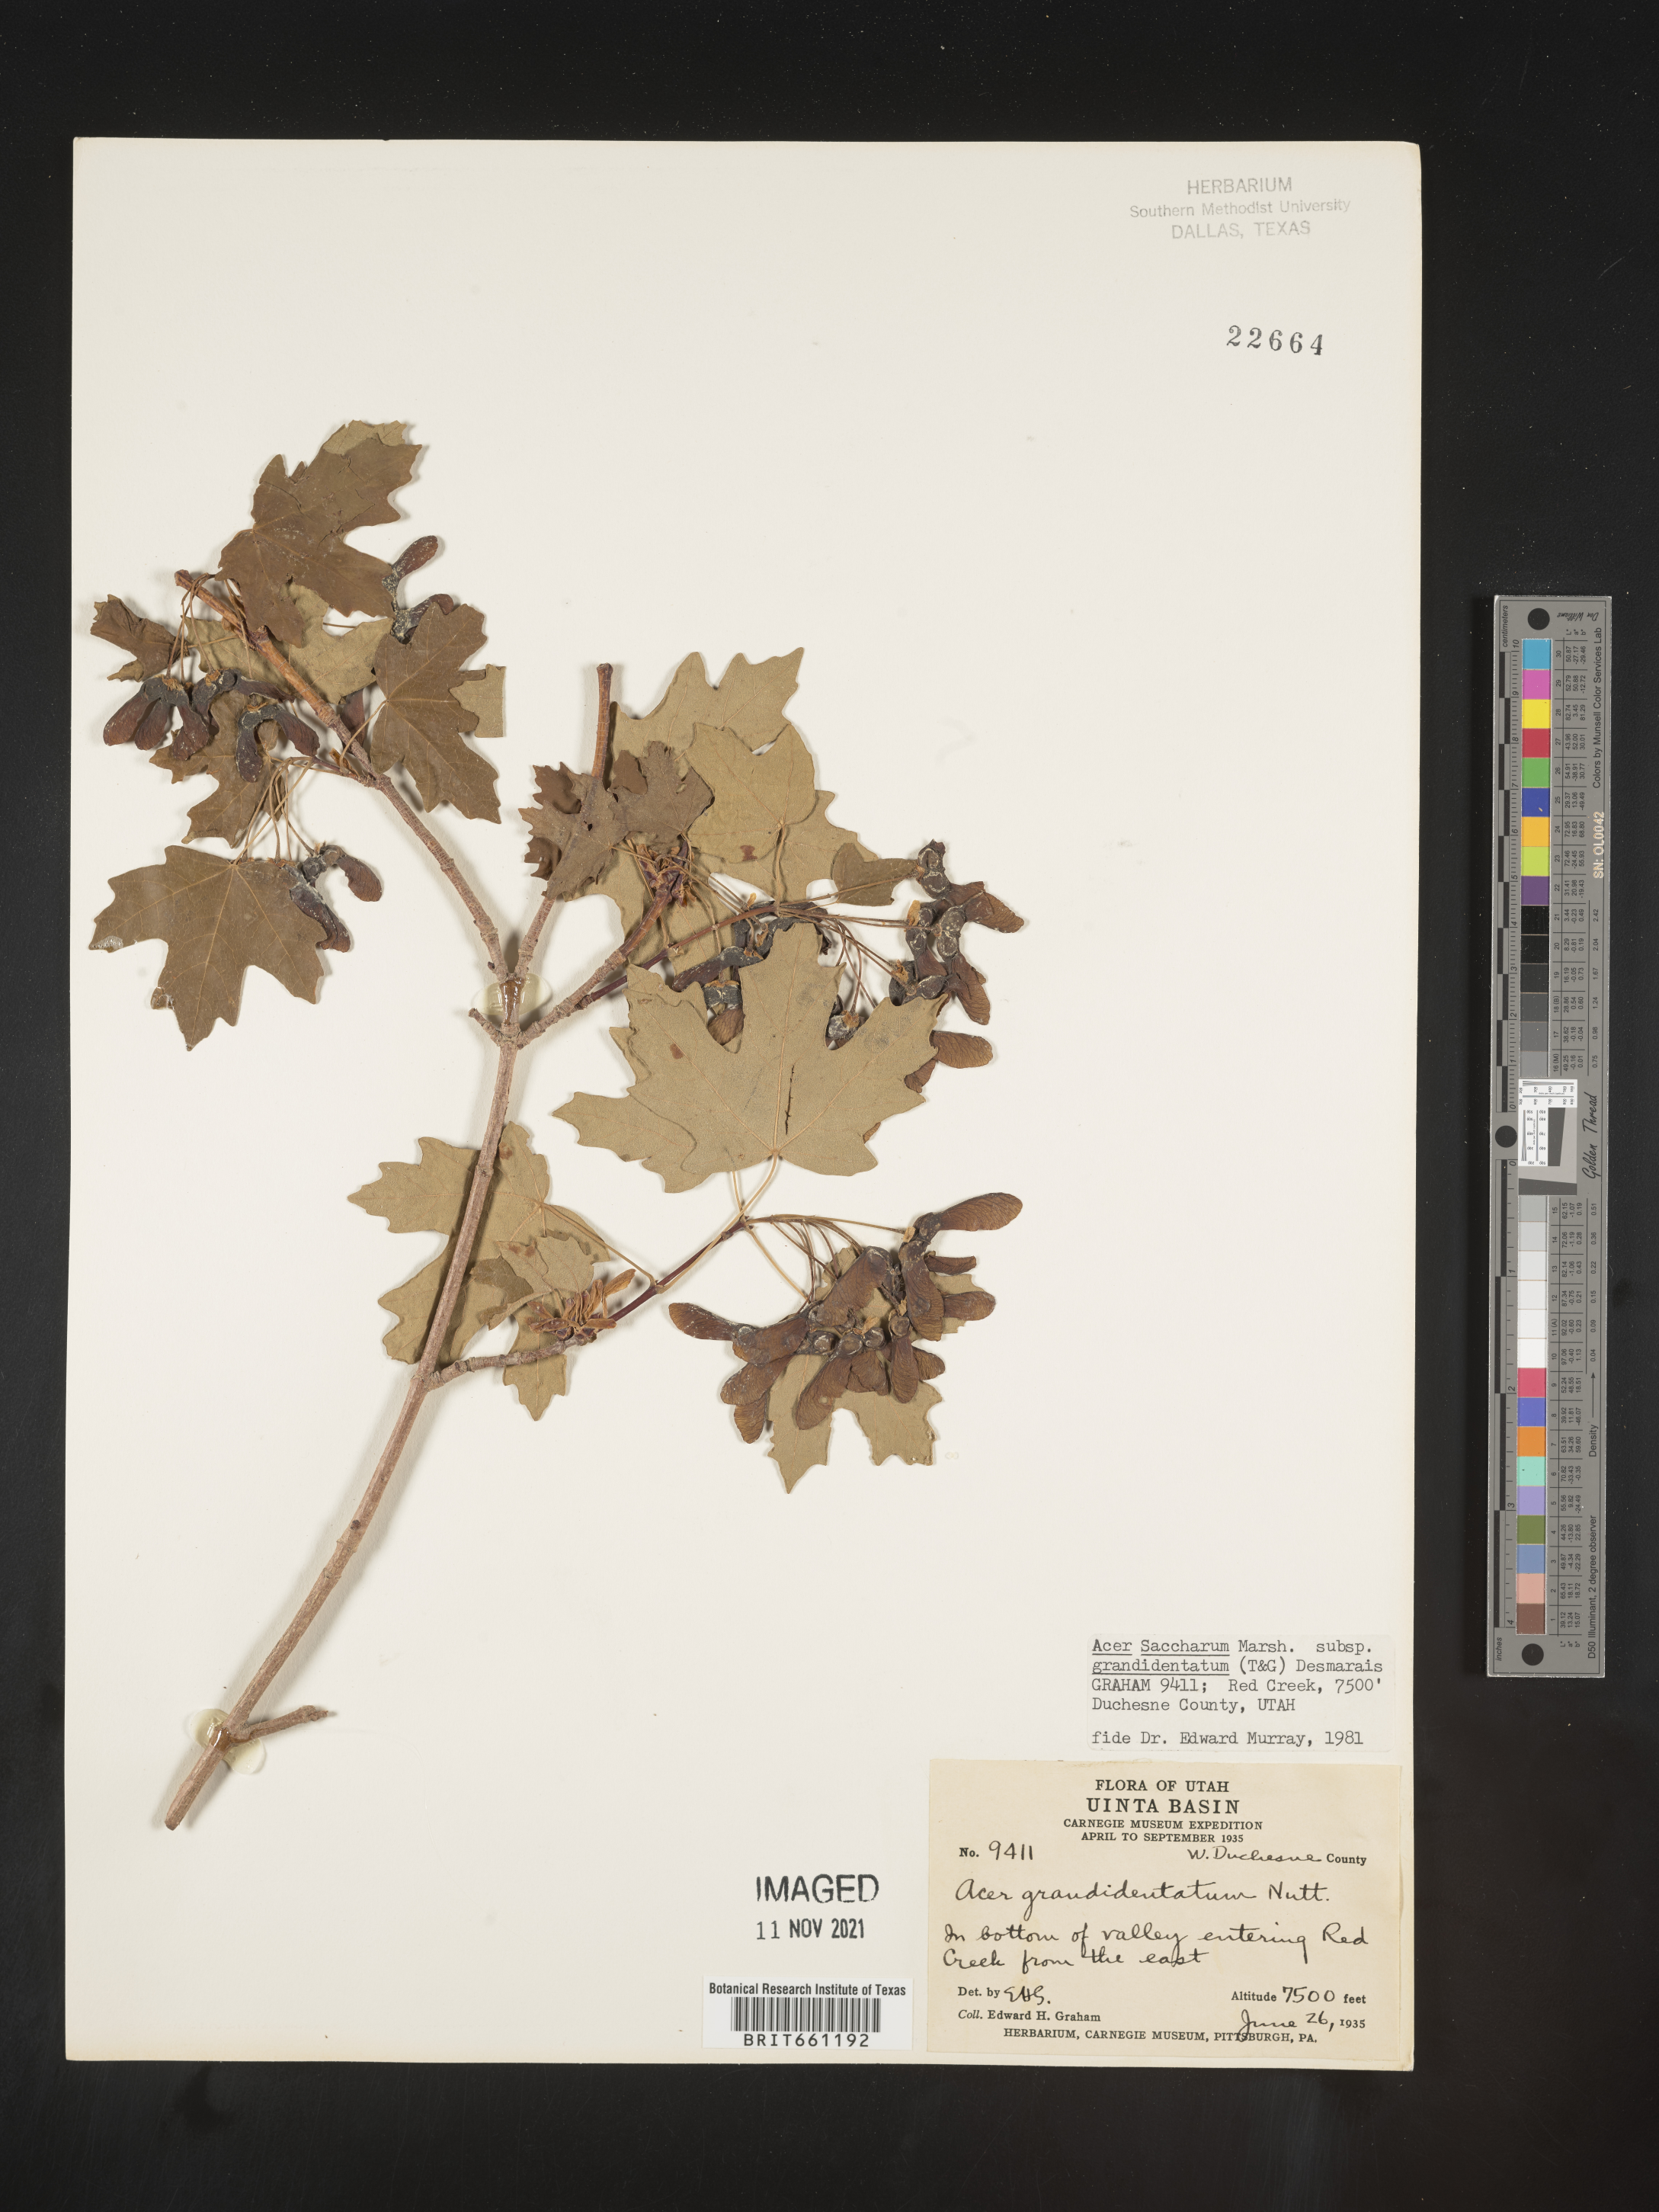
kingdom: Plantae
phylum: Tracheophyta
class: Magnoliopsida
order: Sapindales
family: Sapindaceae
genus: Acer
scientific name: Acer grandidentatum
